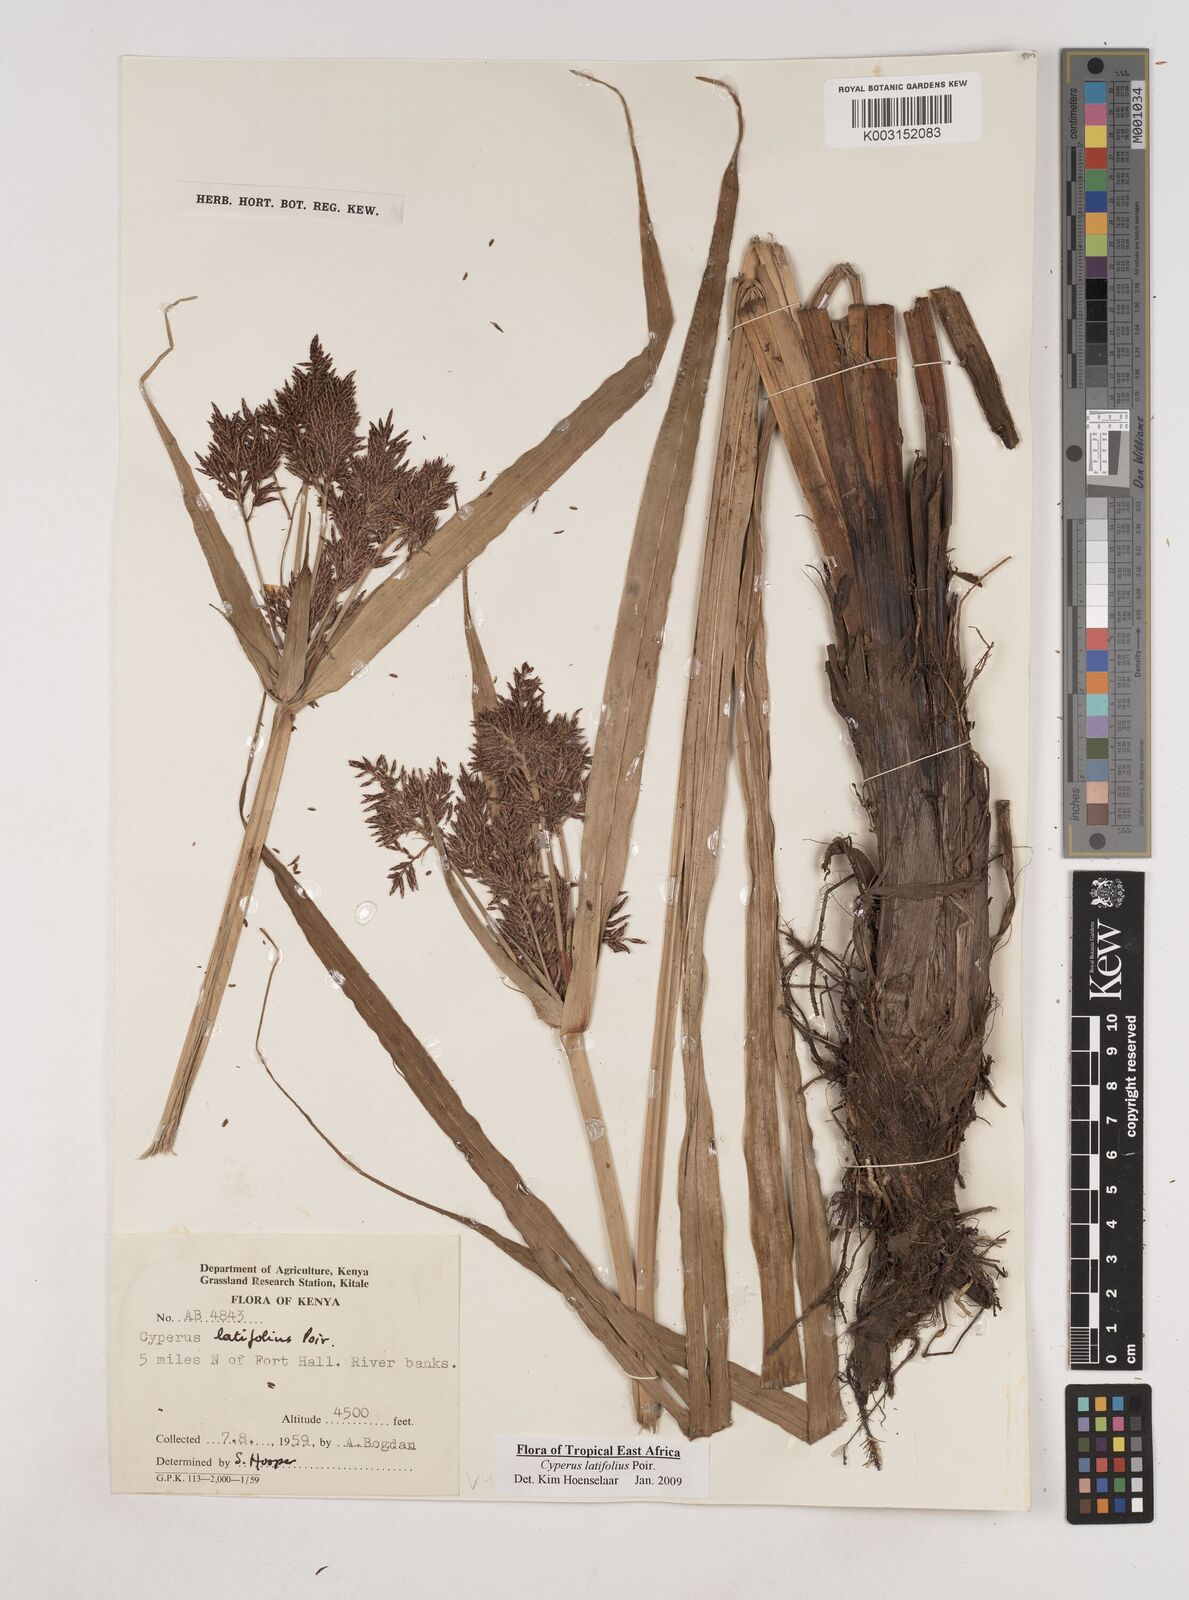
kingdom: Plantae
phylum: Tracheophyta
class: Liliopsida
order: Poales
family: Cyperaceae
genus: Cyperus
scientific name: Cyperus latifolius
